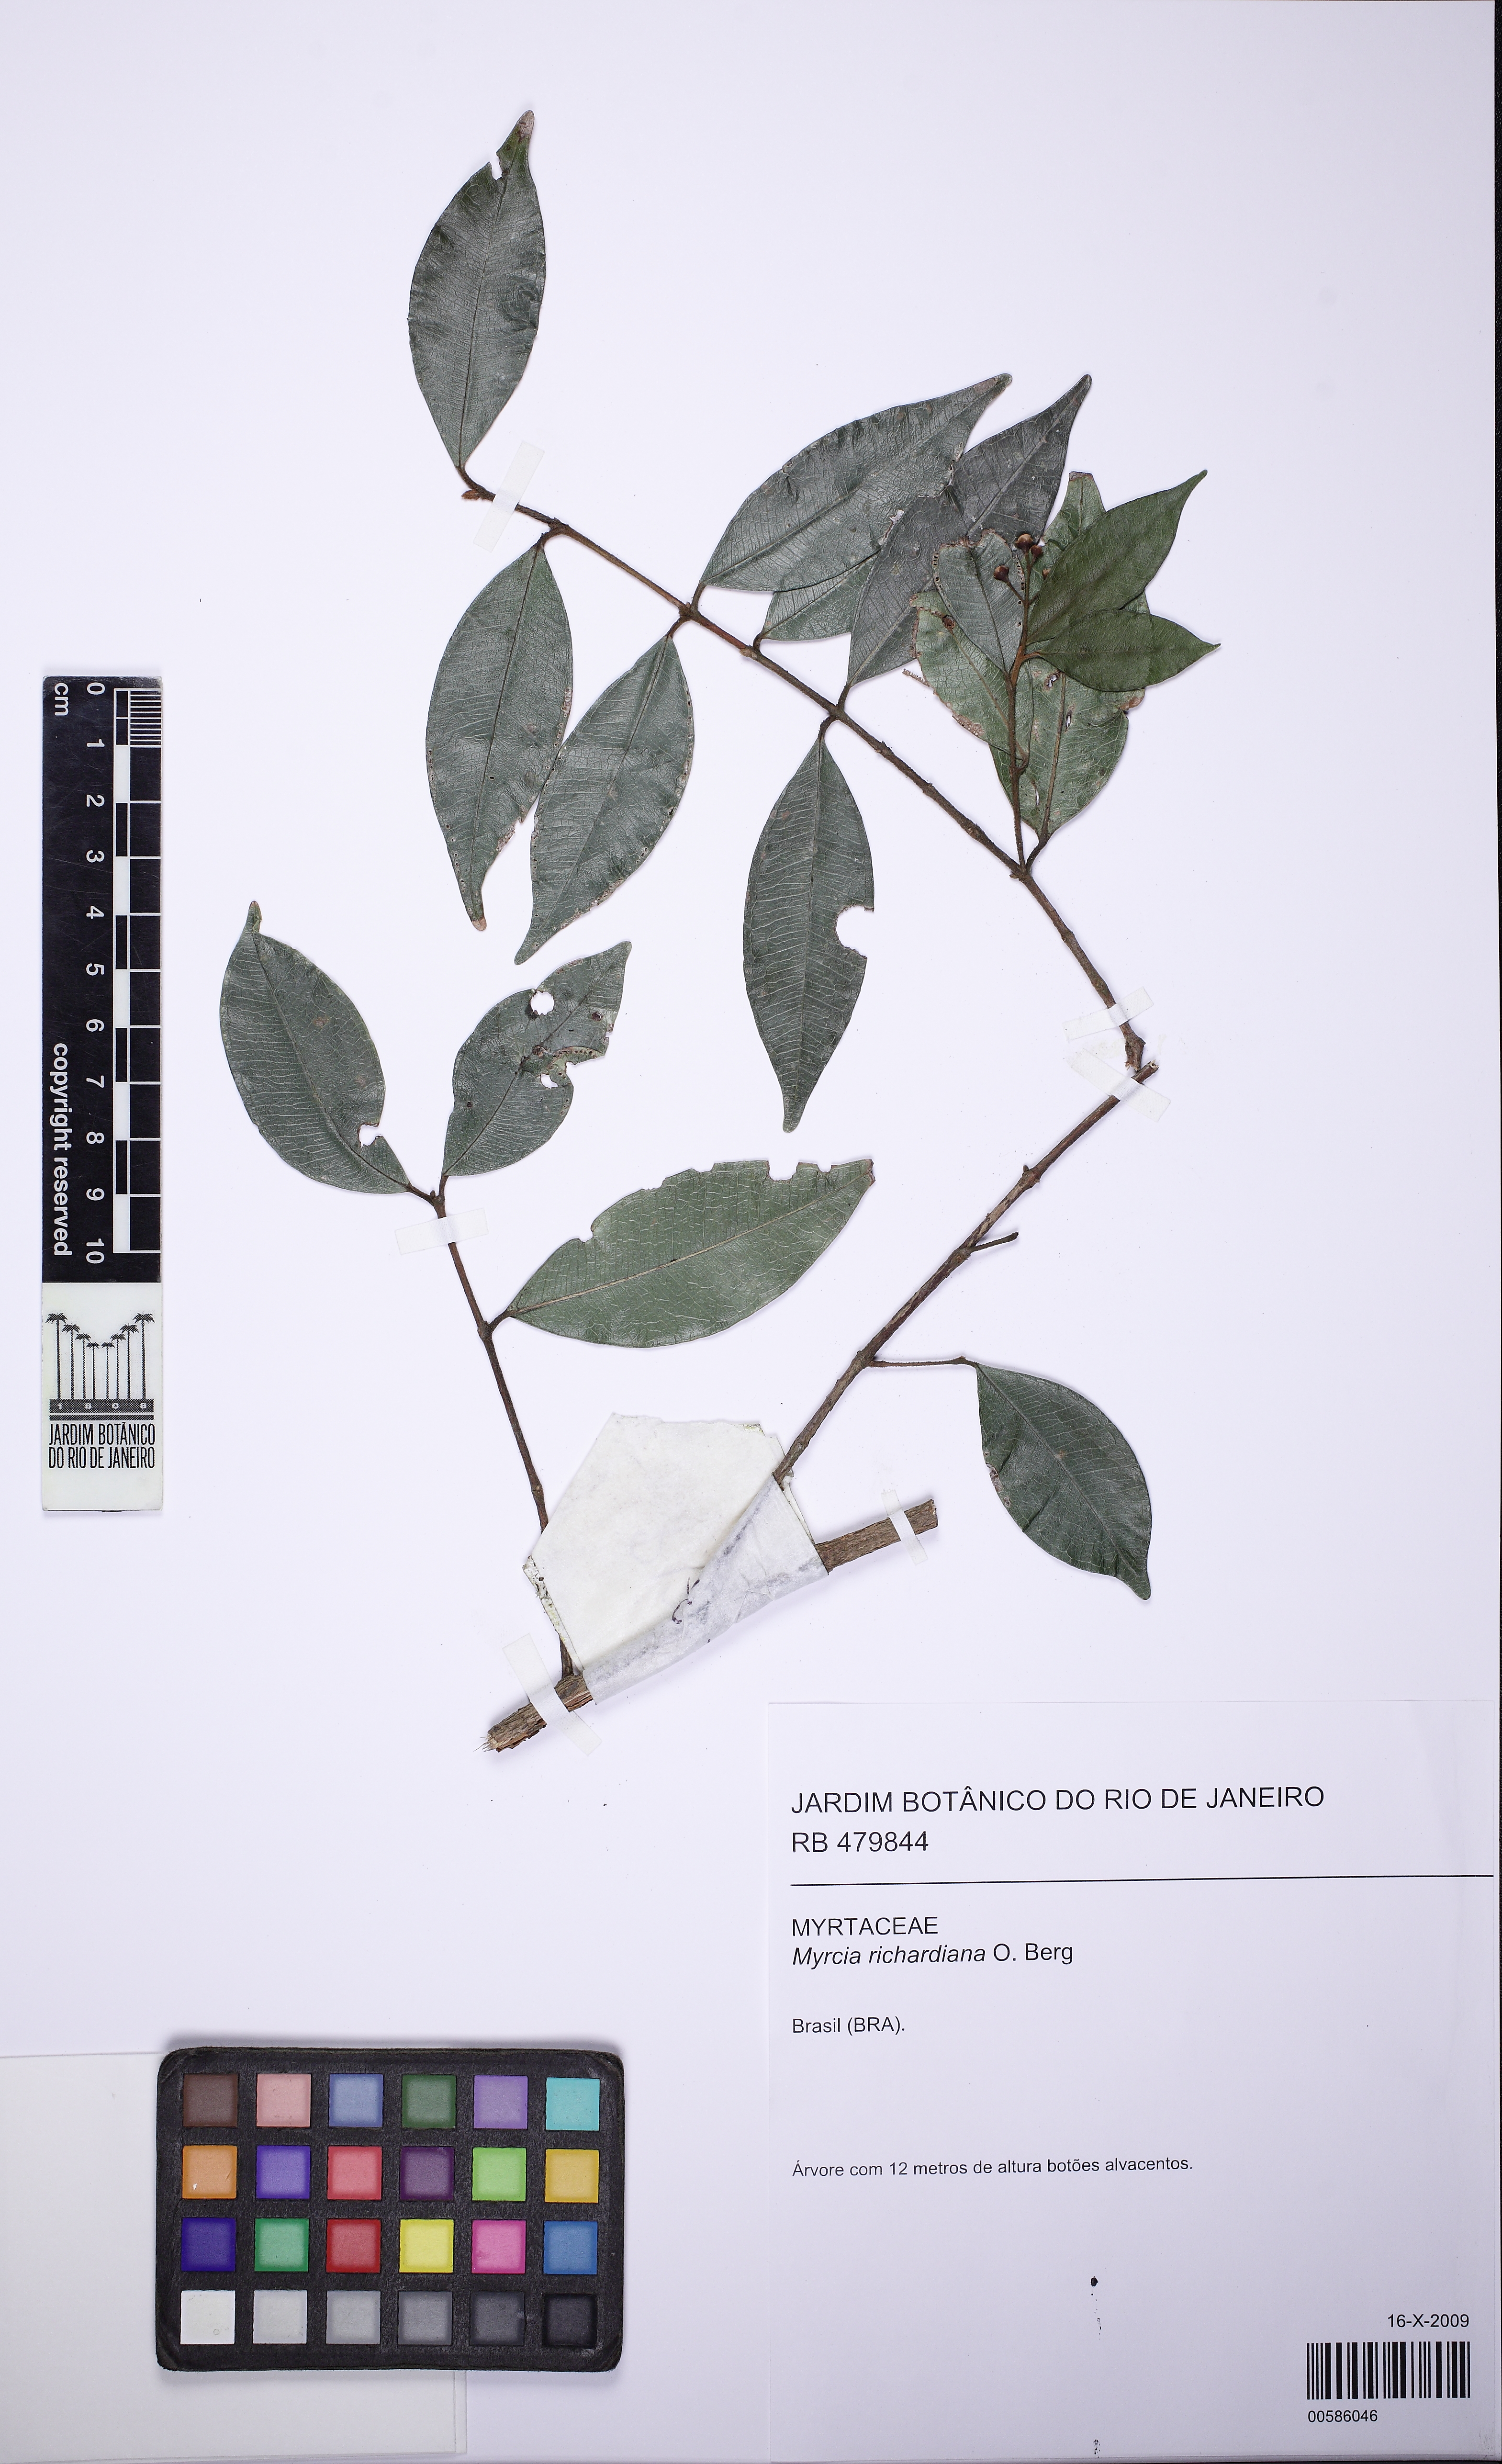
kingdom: Plantae
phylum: Tracheophyta
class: Magnoliopsida
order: Myrtales
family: Myrtaceae
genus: Myrcia
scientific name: Myrcia richardiana
